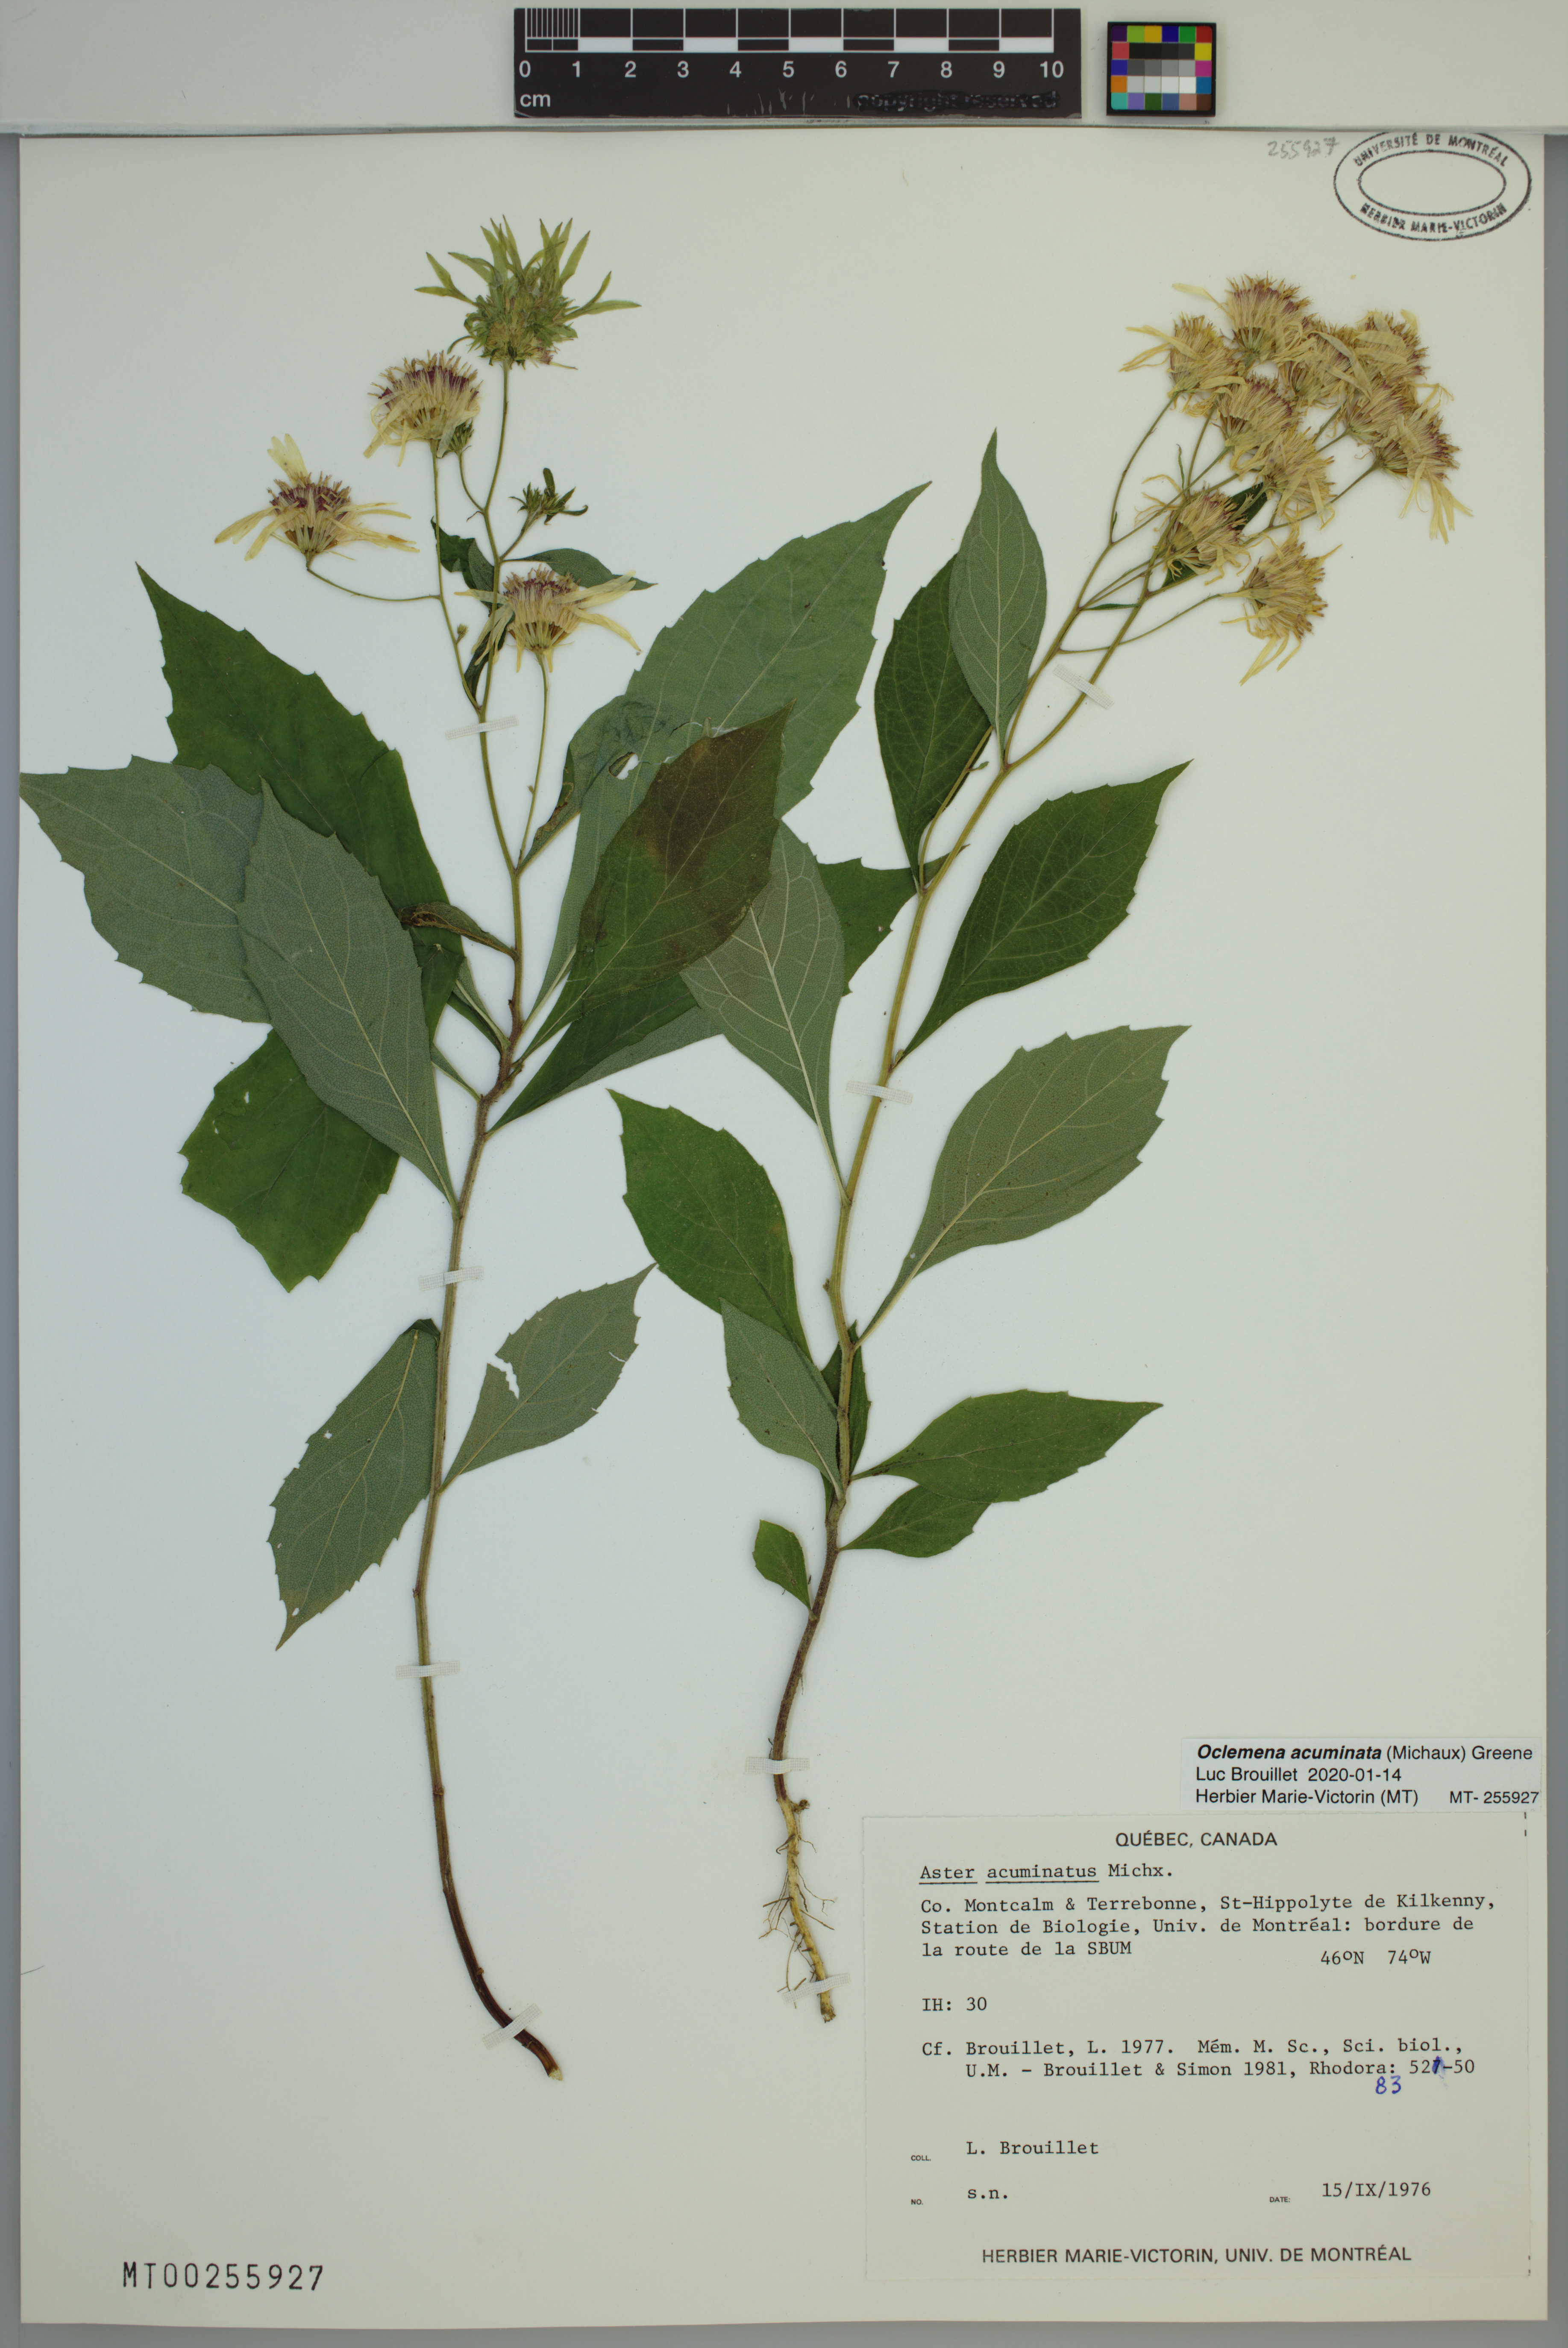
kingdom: Plantae
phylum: Tracheophyta
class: Magnoliopsida
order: Asterales
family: Asteraceae
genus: Oclemena
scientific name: Oclemena acuminata
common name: Mountain aster
